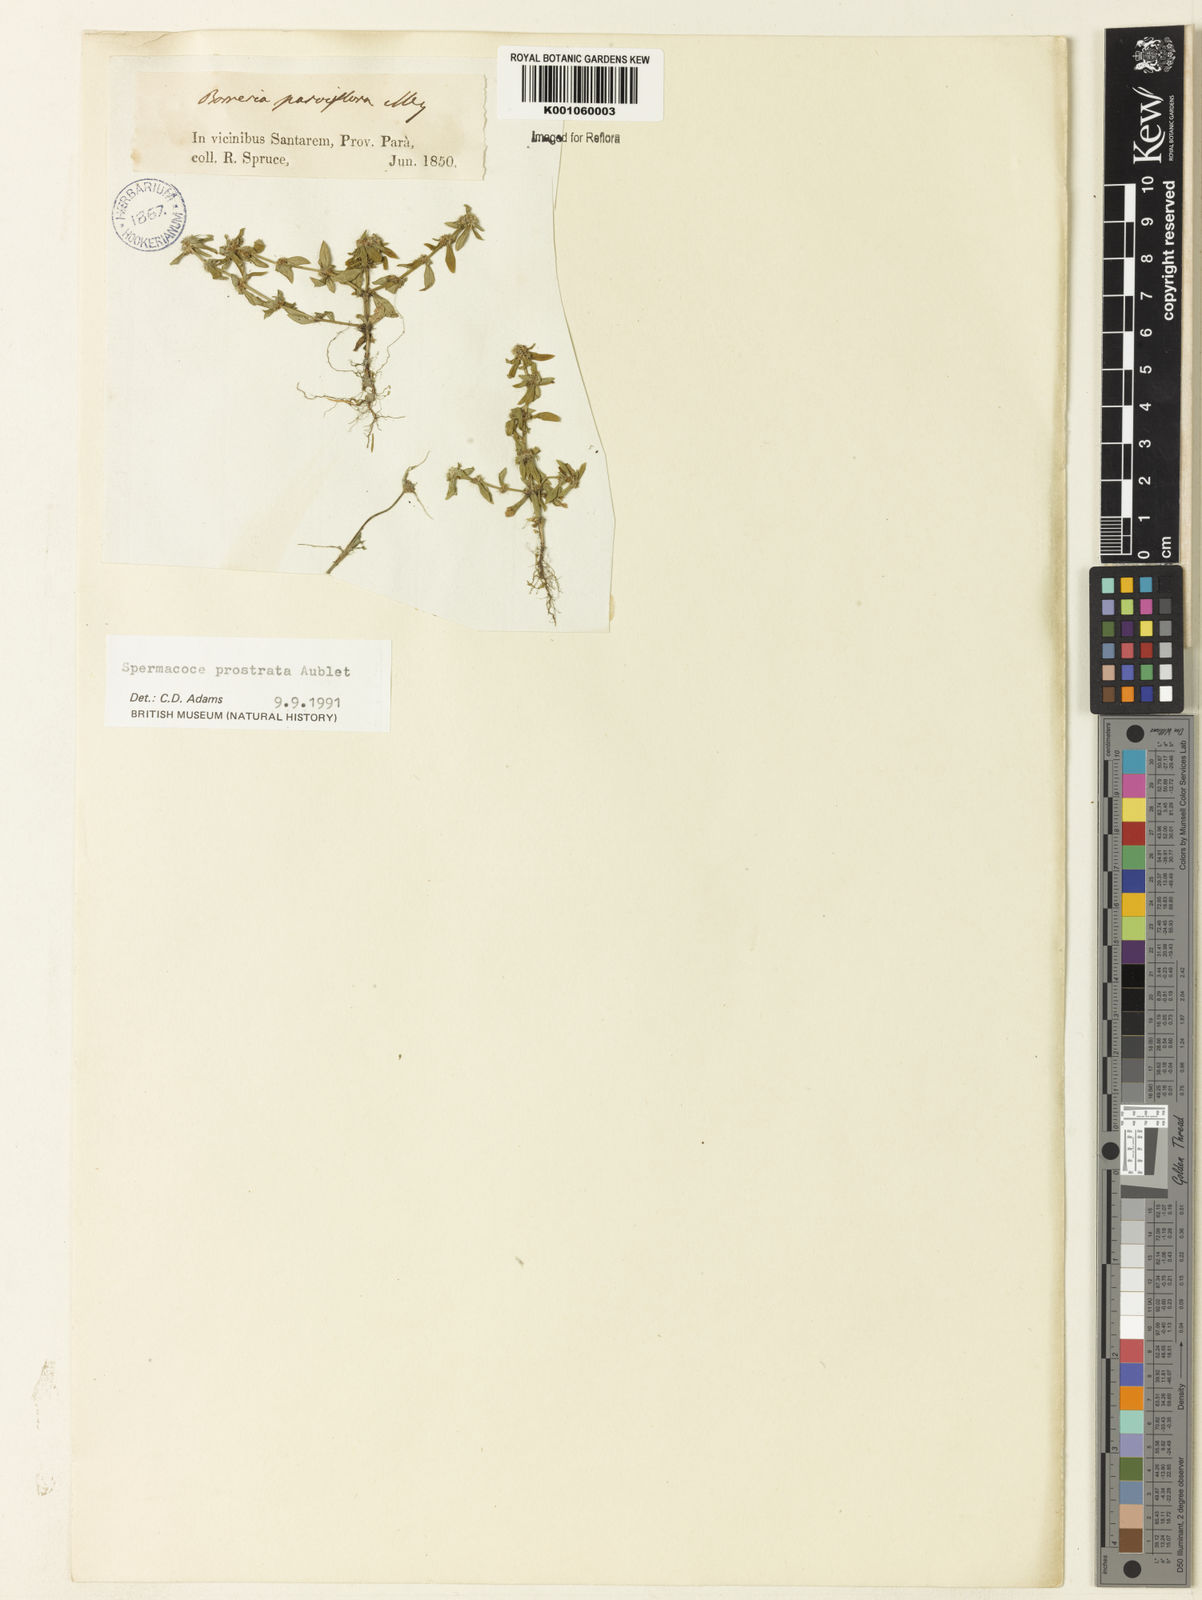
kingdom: Plantae
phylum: Tracheophyta
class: Magnoliopsida
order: Gentianales
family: Rubiaceae
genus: Spermacoce
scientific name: Spermacoce
